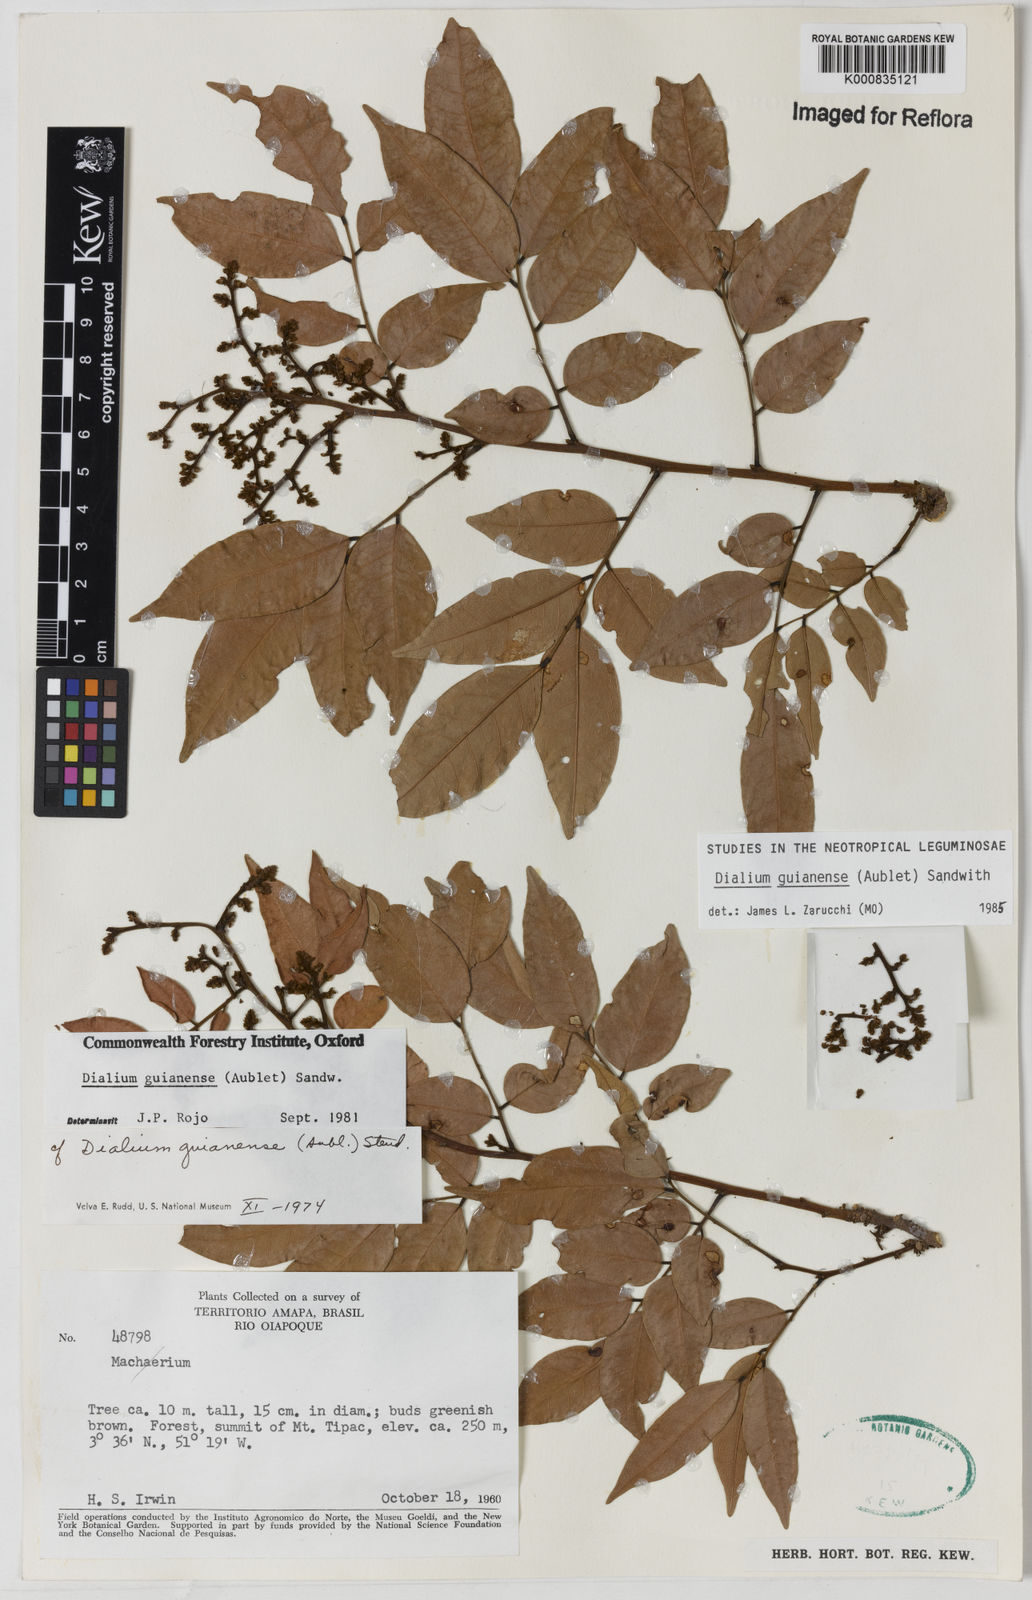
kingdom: Plantae
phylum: Tracheophyta
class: Magnoliopsida
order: Fabales
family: Fabaceae
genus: Machaerium
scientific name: Machaerium
